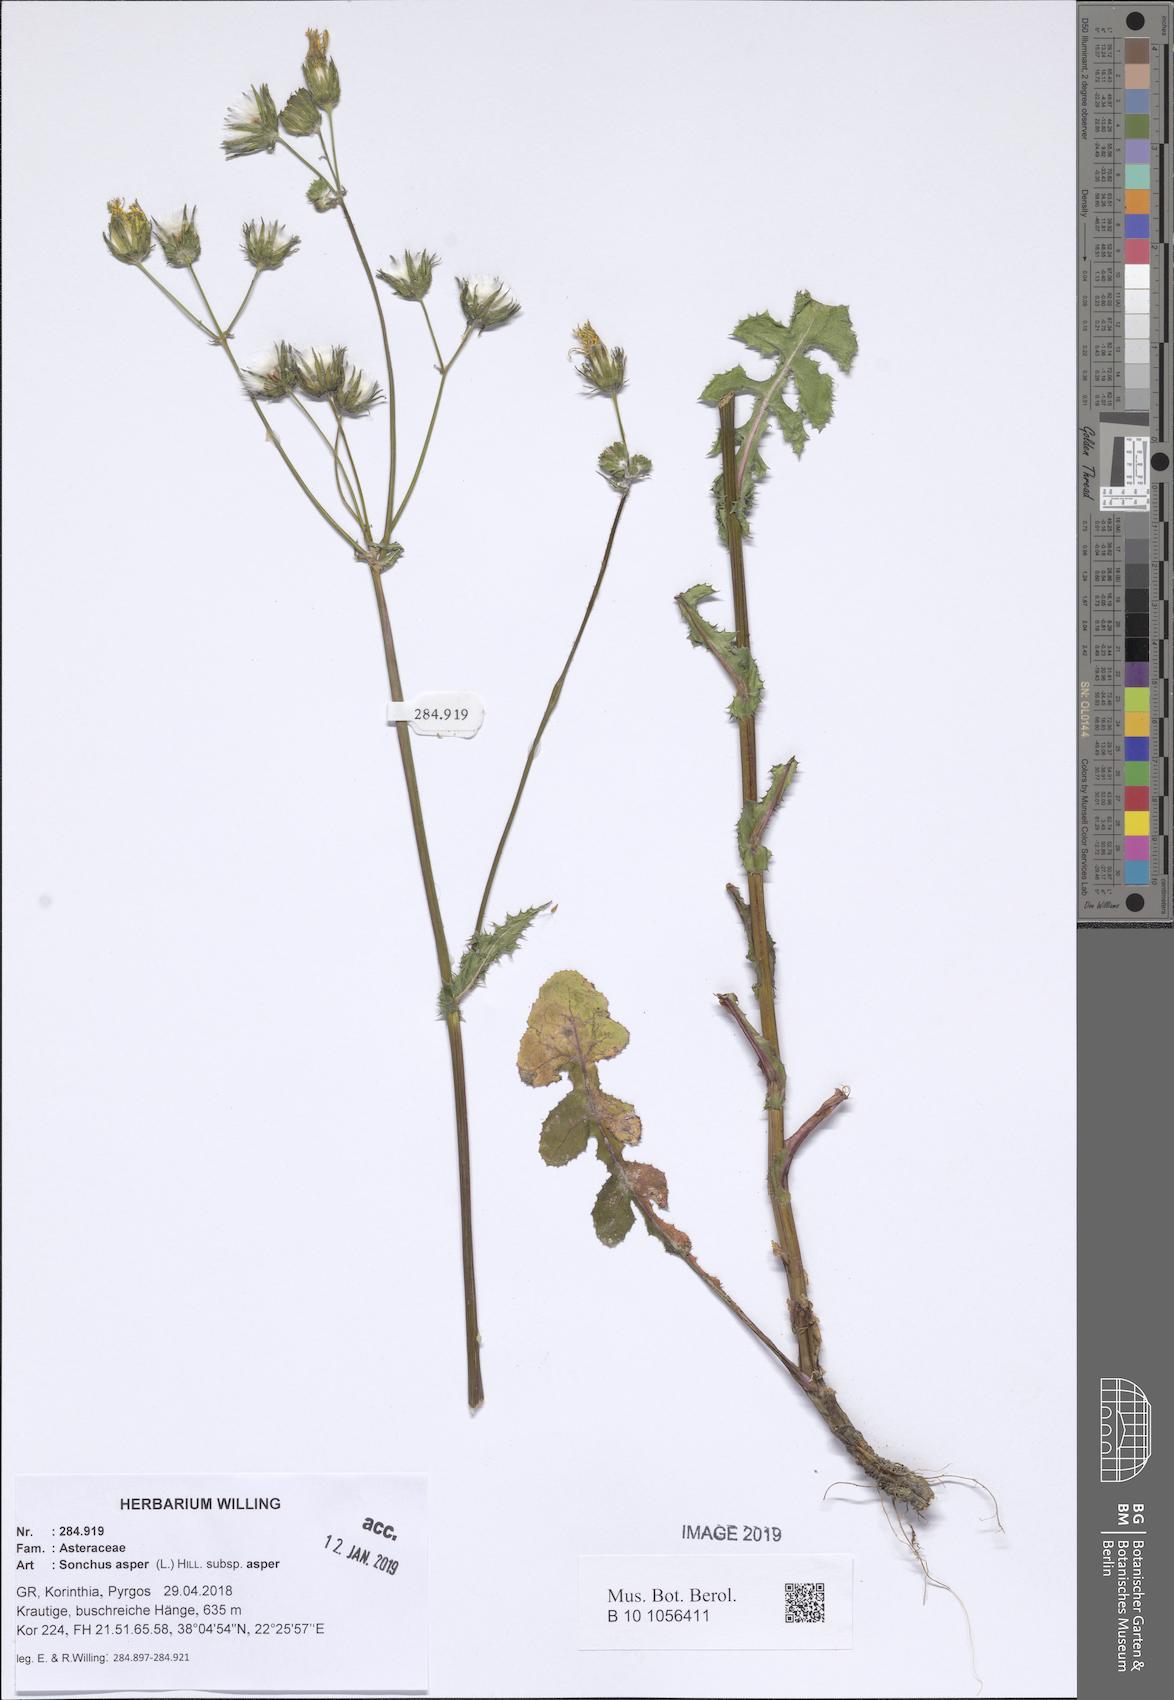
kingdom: Plantae
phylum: Tracheophyta
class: Magnoliopsida
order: Asterales
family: Asteraceae
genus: Sonchus
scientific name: Sonchus asper
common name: Prickly sow-thistle
